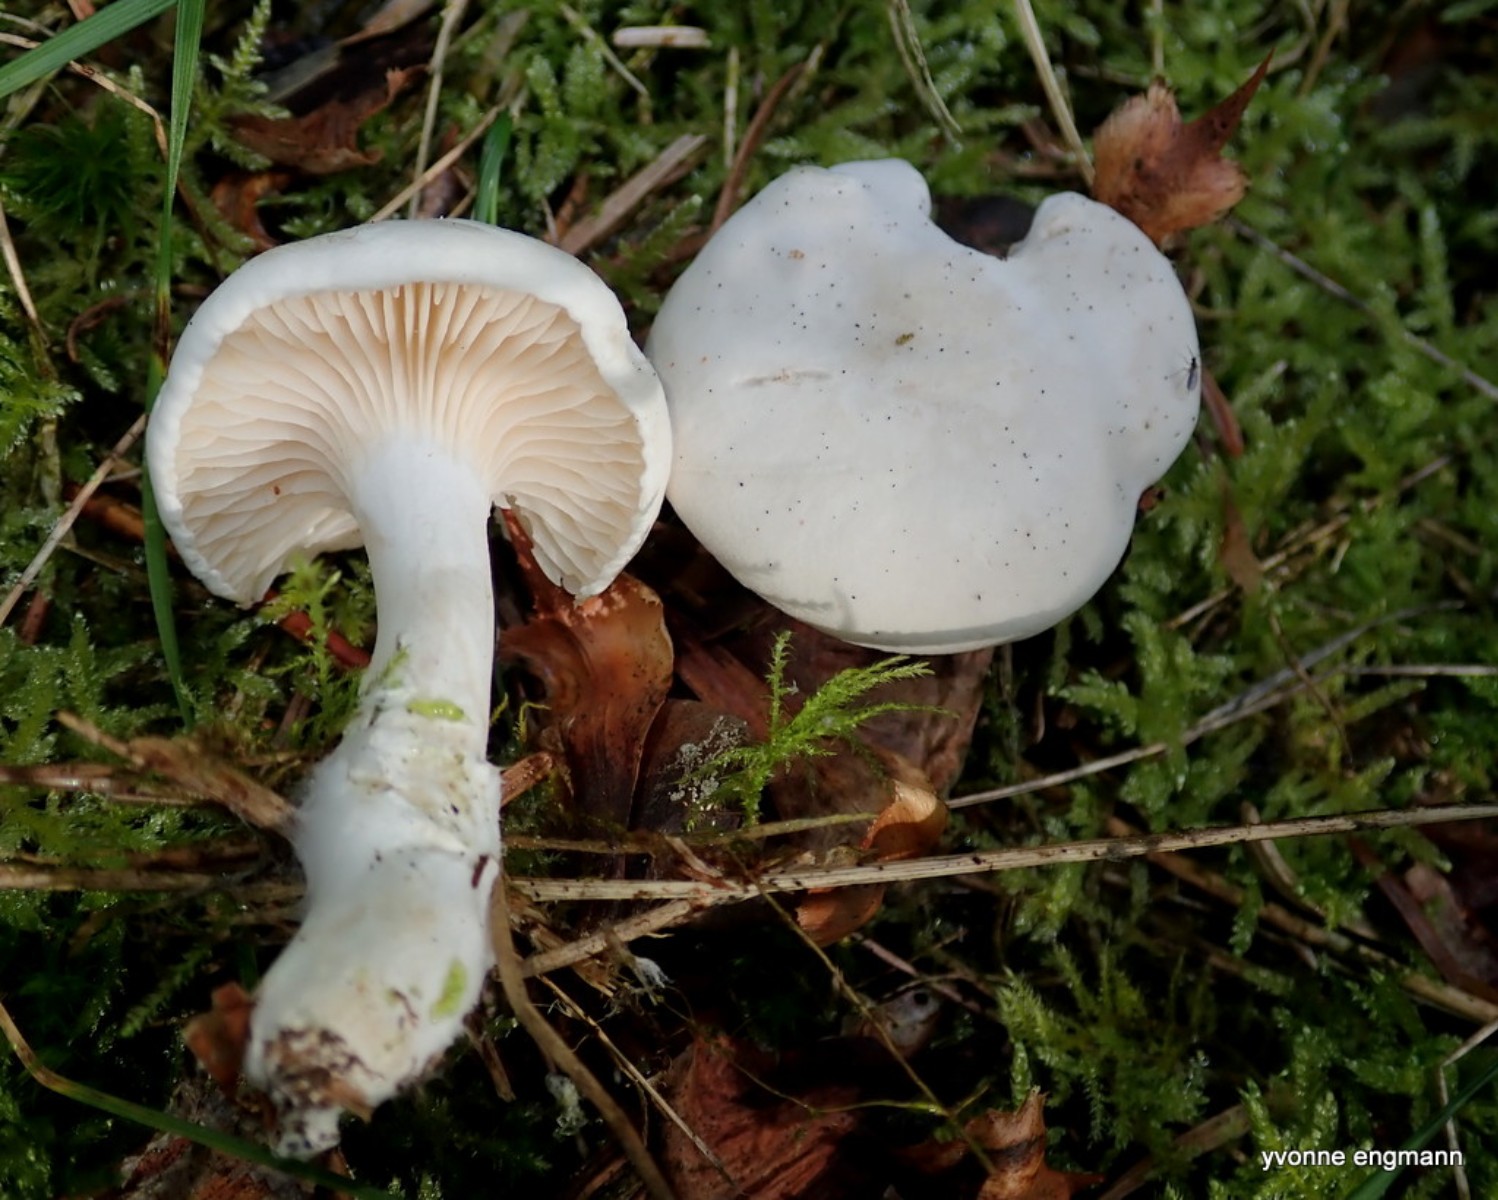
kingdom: Fungi
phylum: Basidiomycota
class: Agaricomycetes
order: Agaricales
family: Entolomataceae
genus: Clitopilus
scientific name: Clitopilus prunulus
